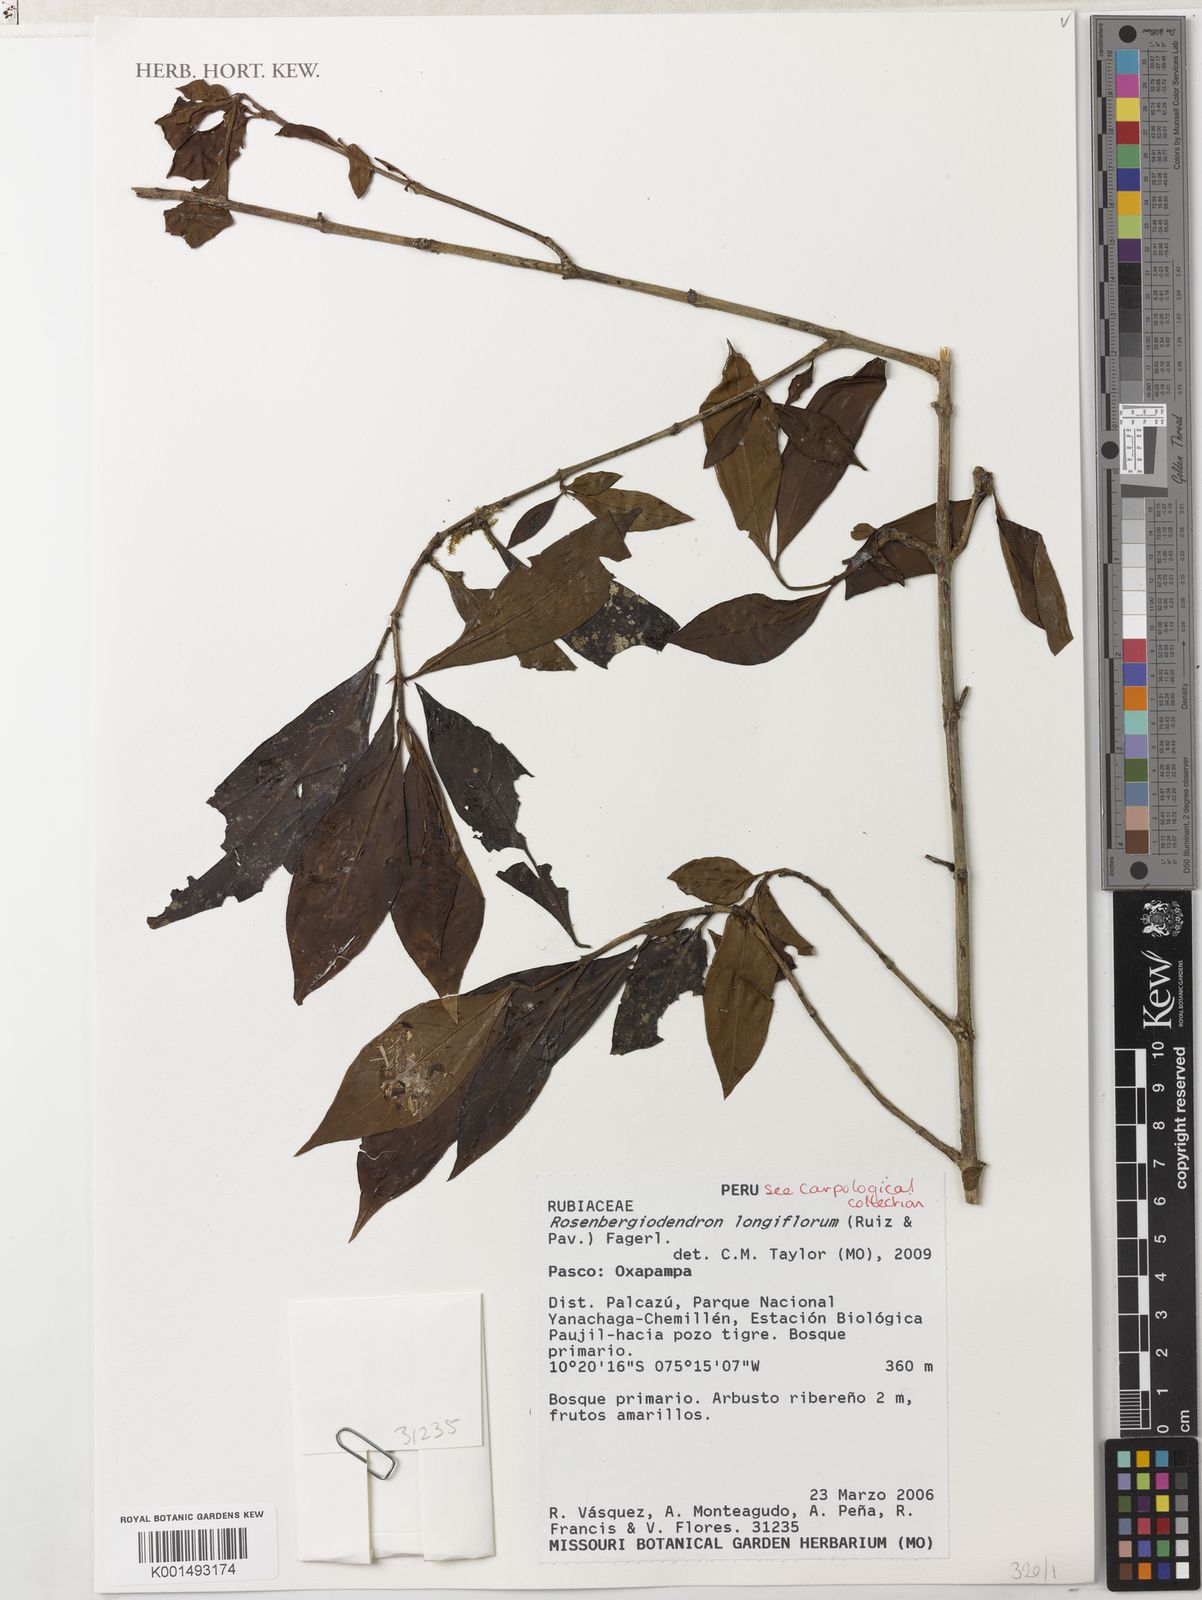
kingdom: Plantae
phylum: Tracheophyta
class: Magnoliopsida
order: Gentianales
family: Rubiaceae
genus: Rosenbergiodendron
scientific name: Rosenbergiodendron longiflorum
